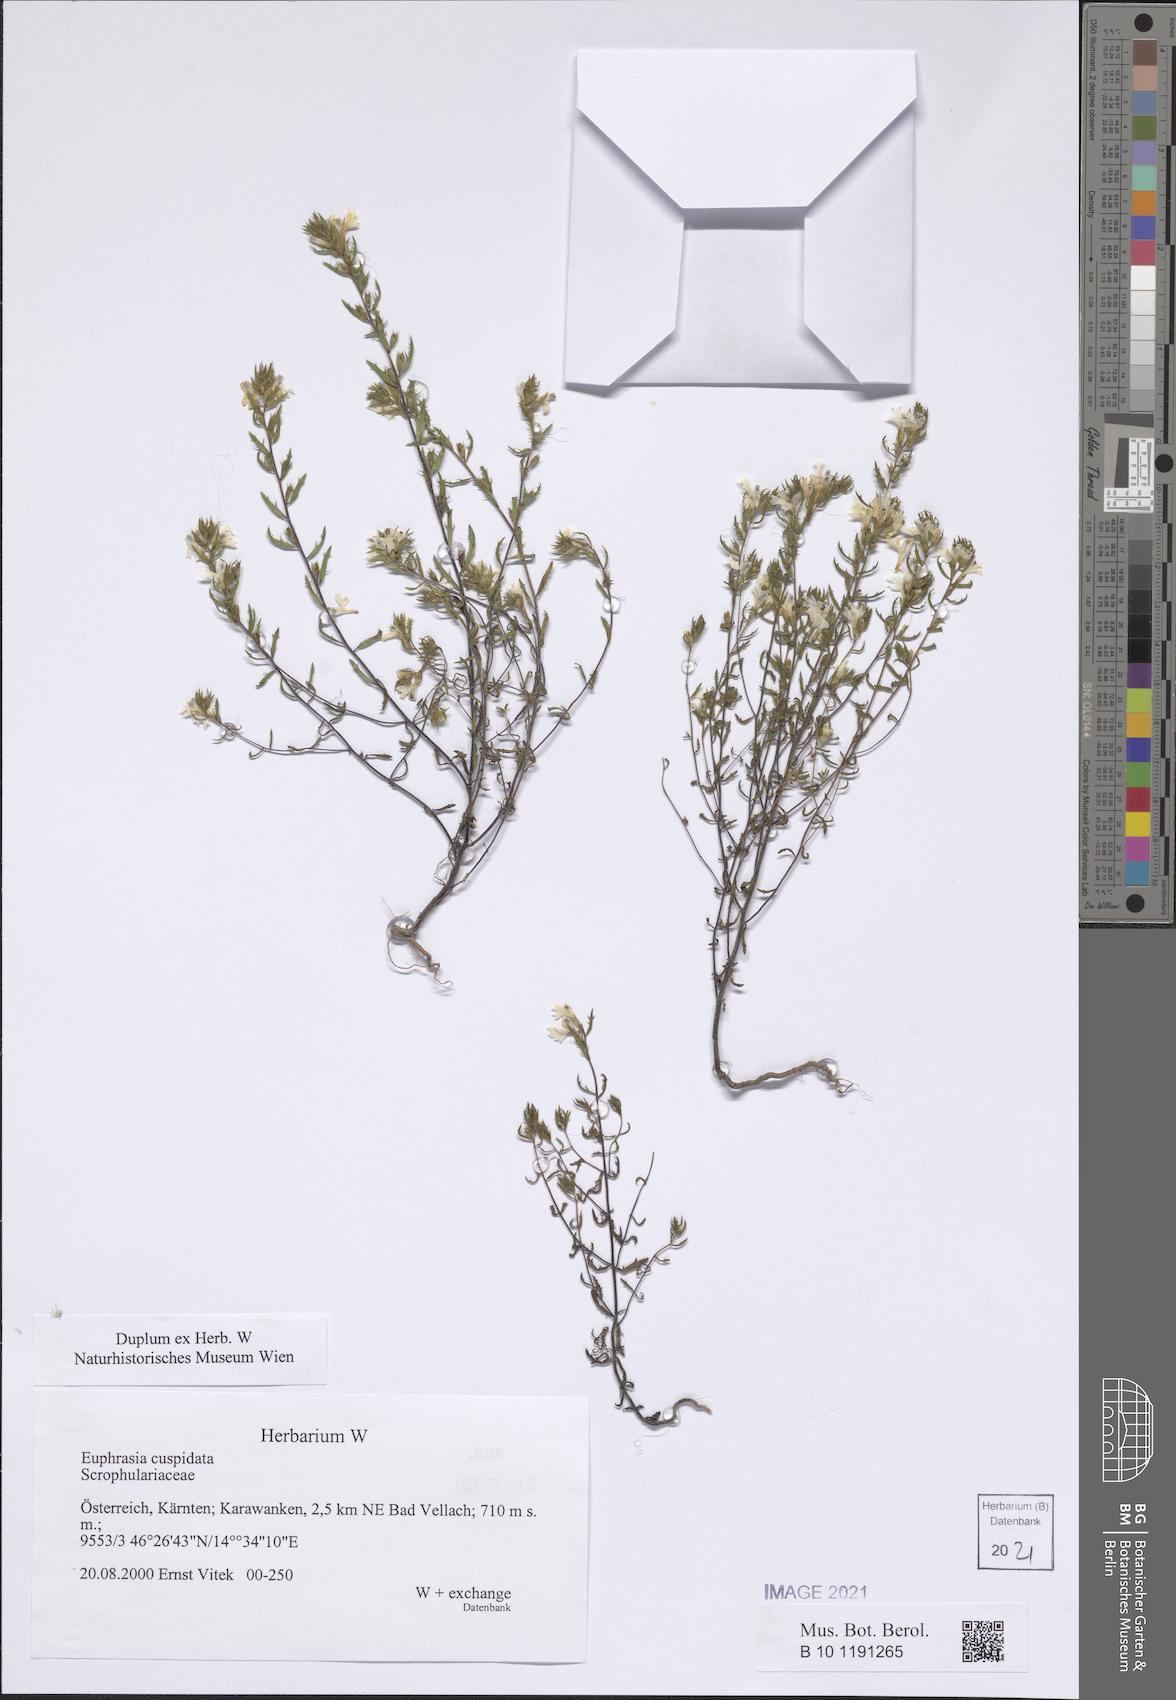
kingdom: Plantae
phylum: Tracheophyta
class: Magnoliopsida
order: Lamiales
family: Orobanchaceae
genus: Euphrasia
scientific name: Euphrasia cuspidata
